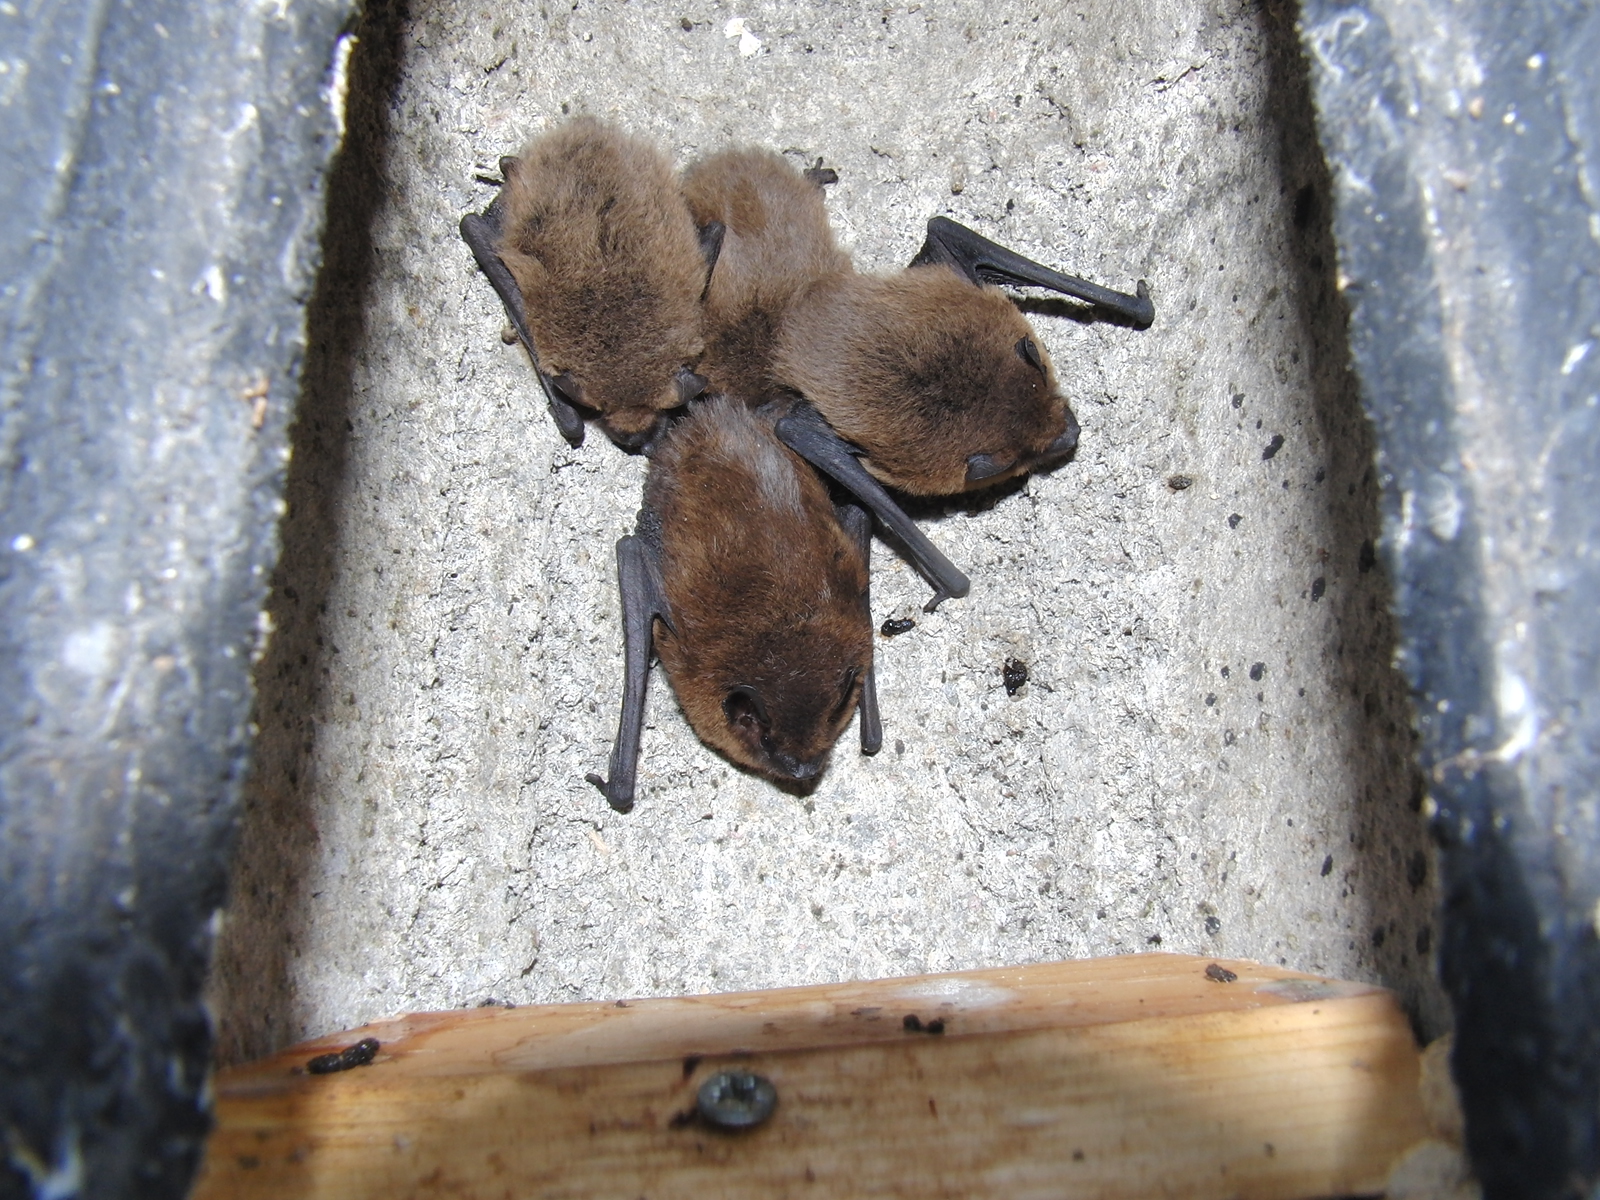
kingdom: Animalia
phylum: Chordata
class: Mammalia
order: Chiroptera
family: Vespertilionidae
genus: Pipistrellus
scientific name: Pipistrellus pipistrellus
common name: Common pipistrelle
